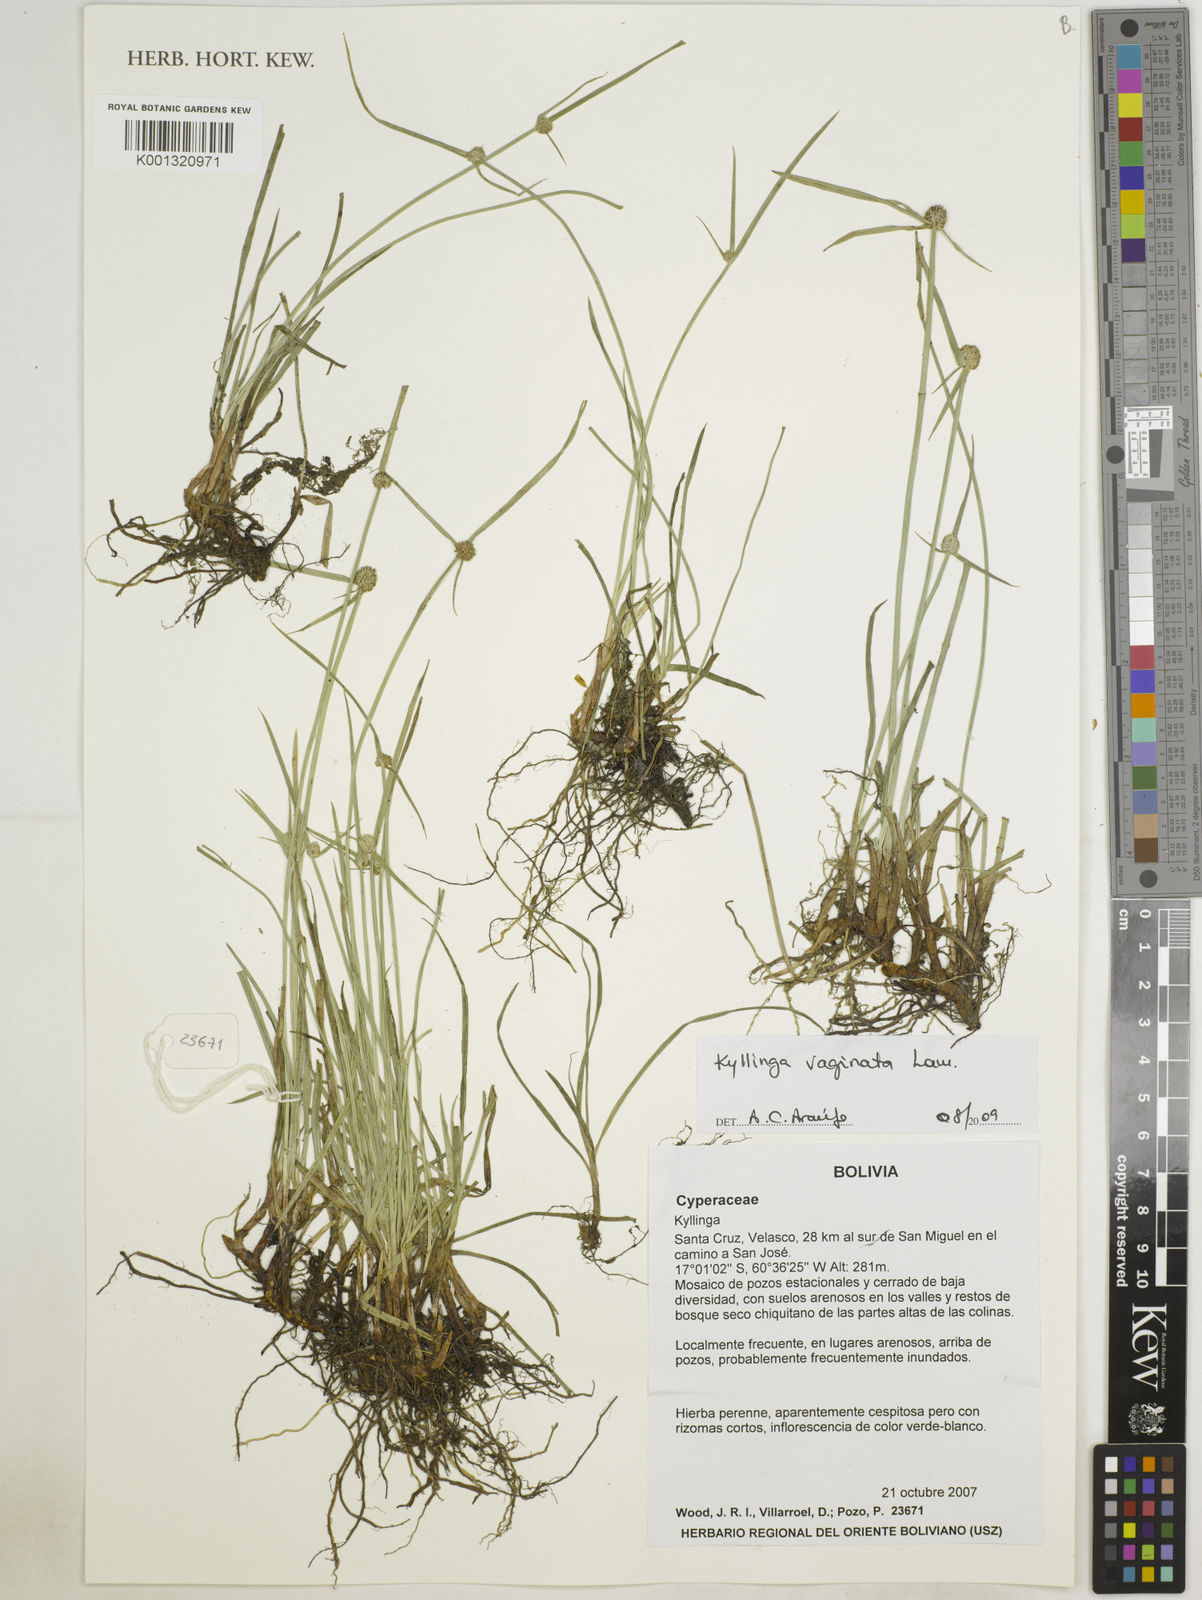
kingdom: Plantae
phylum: Tracheophyta
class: Liliopsida
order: Poales
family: Cyperaceae
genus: Cyperus
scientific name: Cyperus obtusatus
